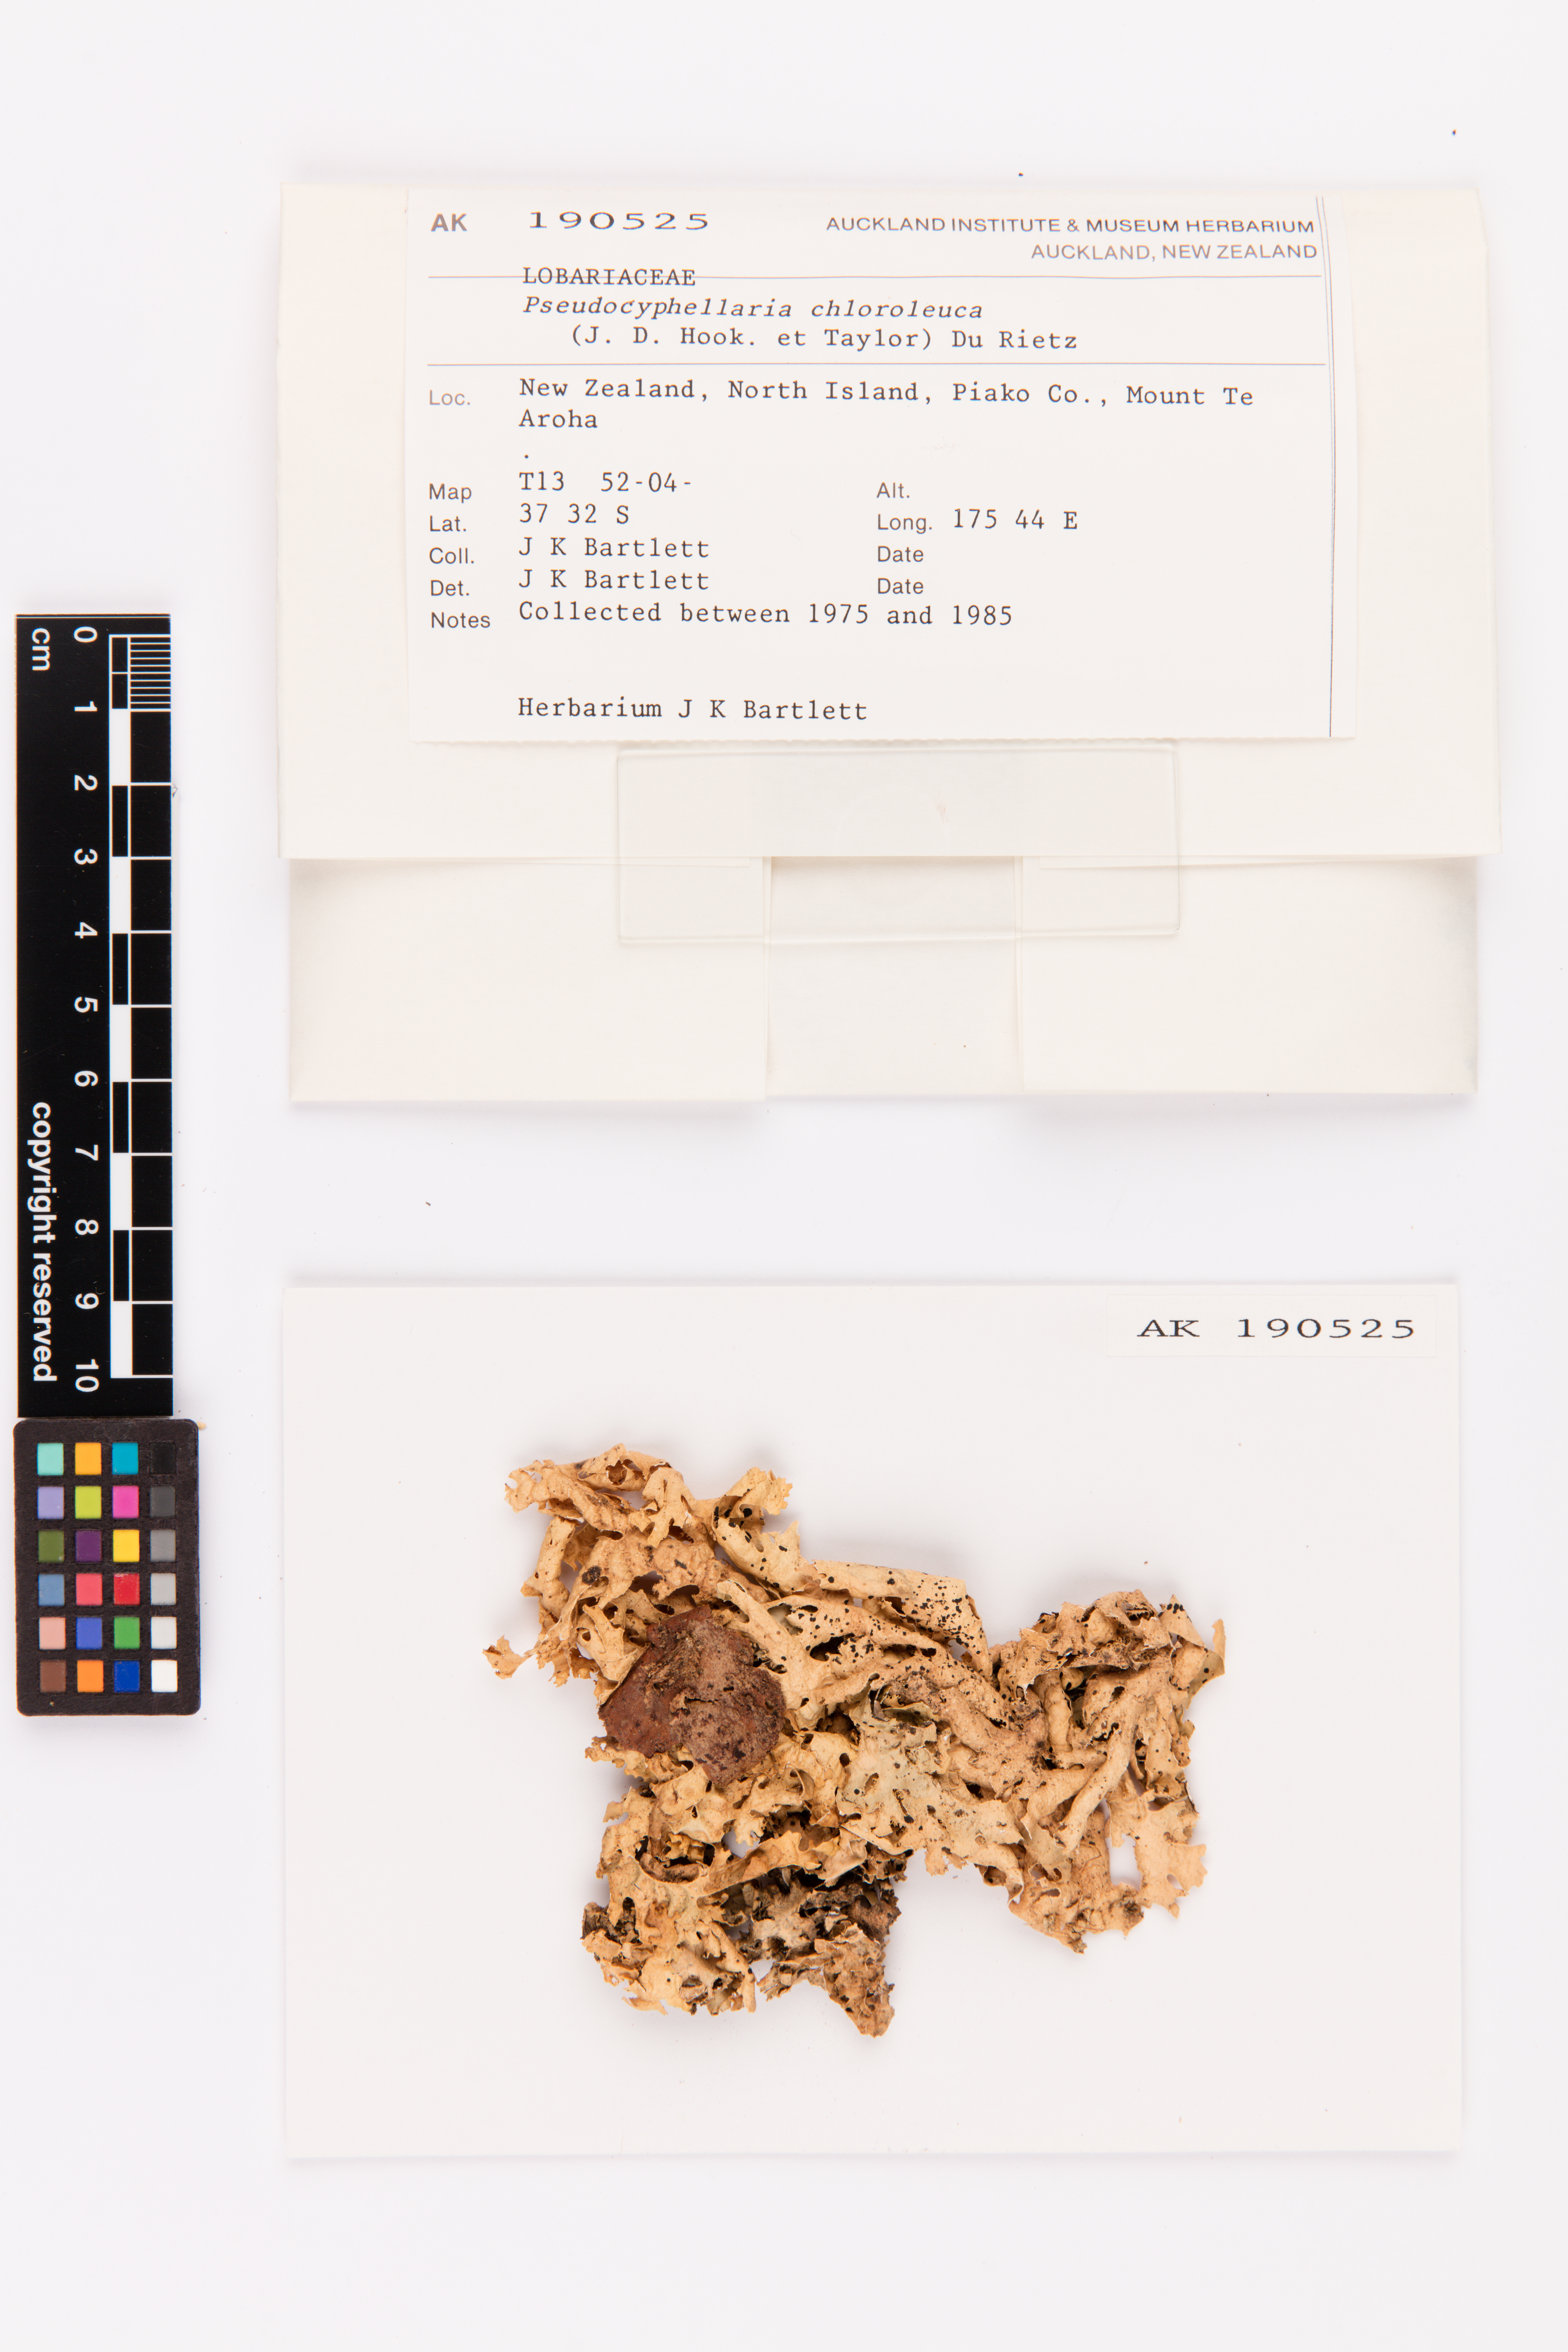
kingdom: Fungi
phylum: Ascomycota
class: Lecanoromycetes
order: Peltigerales
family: Lobariaceae
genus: Pseudocyphellaria
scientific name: Pseudocyphellaria chloroleuca
